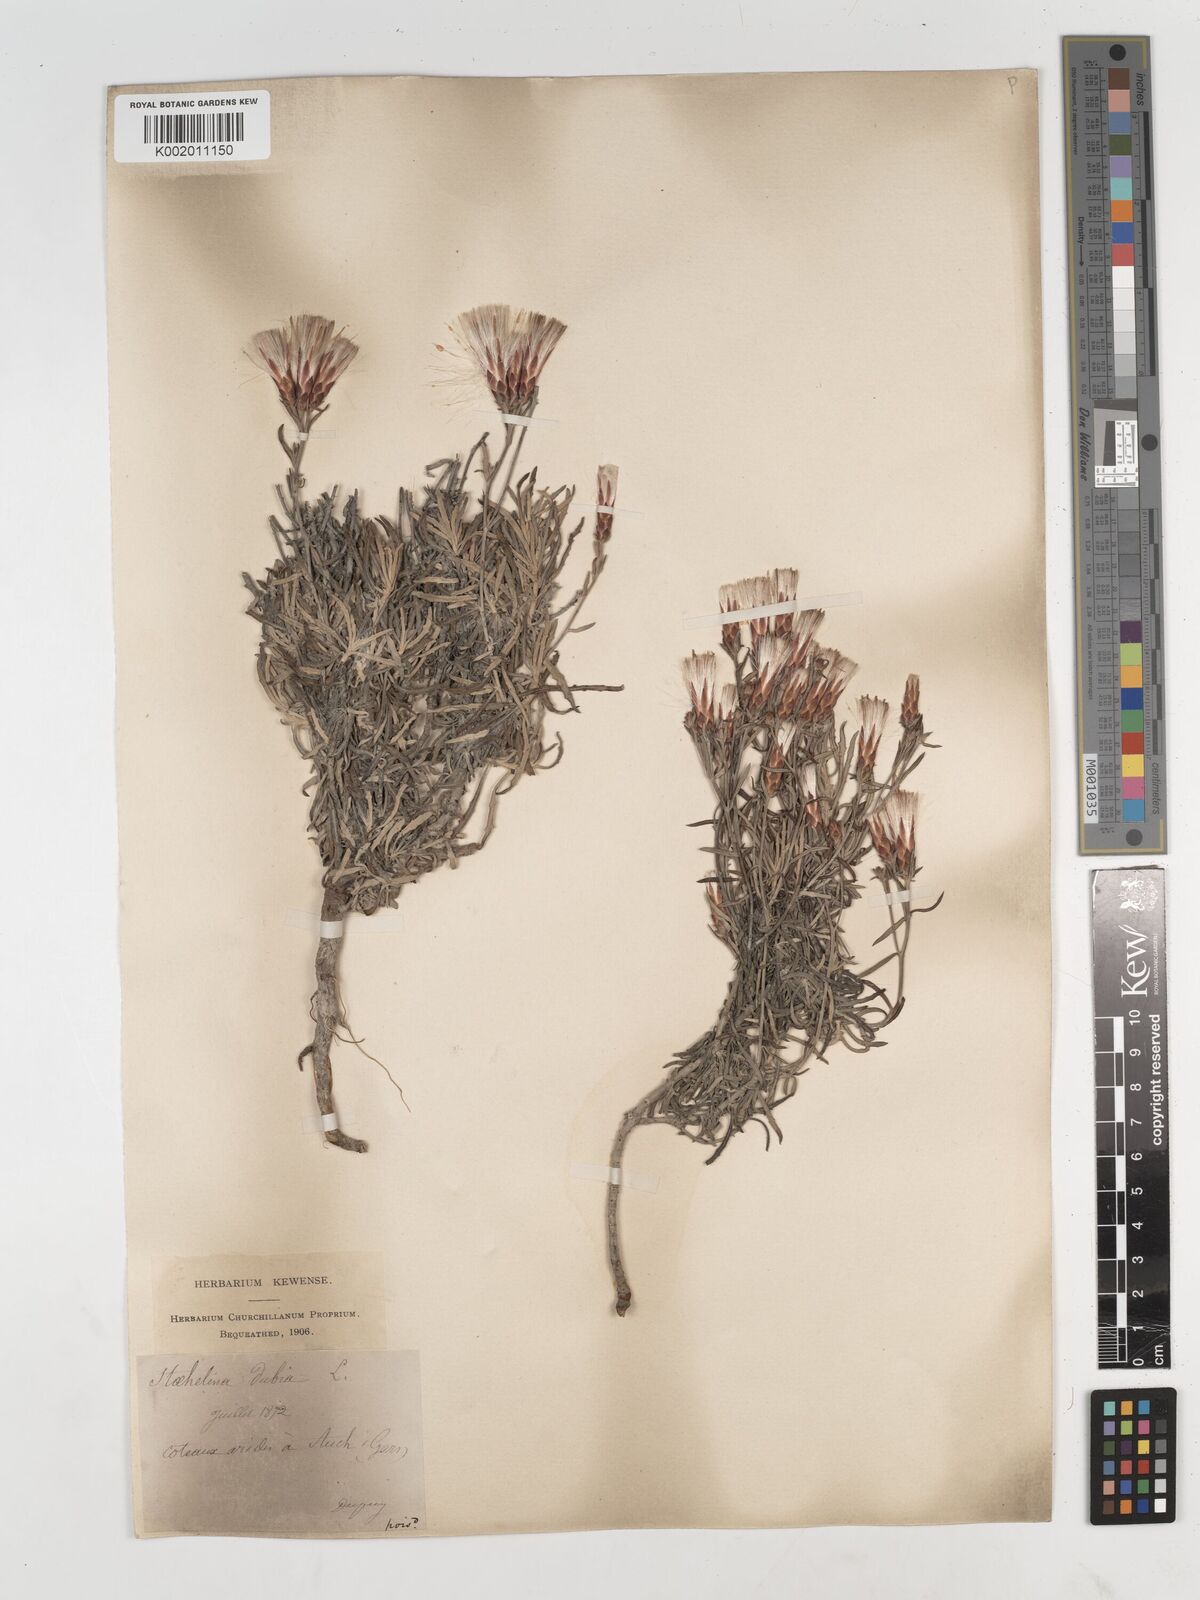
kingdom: Plantae
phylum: Tracheophyta
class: Magnoliopsida
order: Asterales
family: Asteraceae
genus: Staehelina
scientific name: Staehelina dubia
